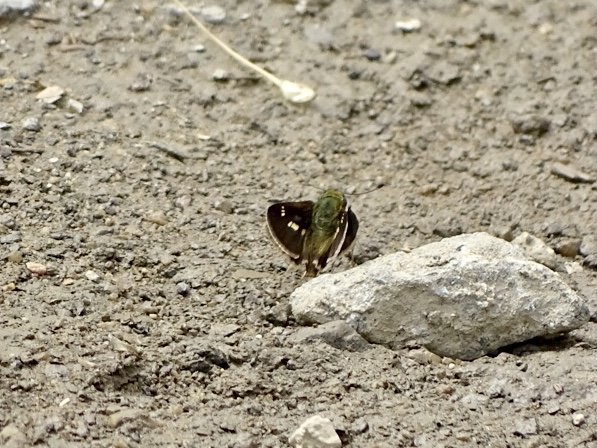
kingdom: Animalia
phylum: Arthropoda
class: Insecta
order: Lepidoptera
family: Hesperiidae
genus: Vernia
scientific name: Vernia verna
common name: Little Glassywing
